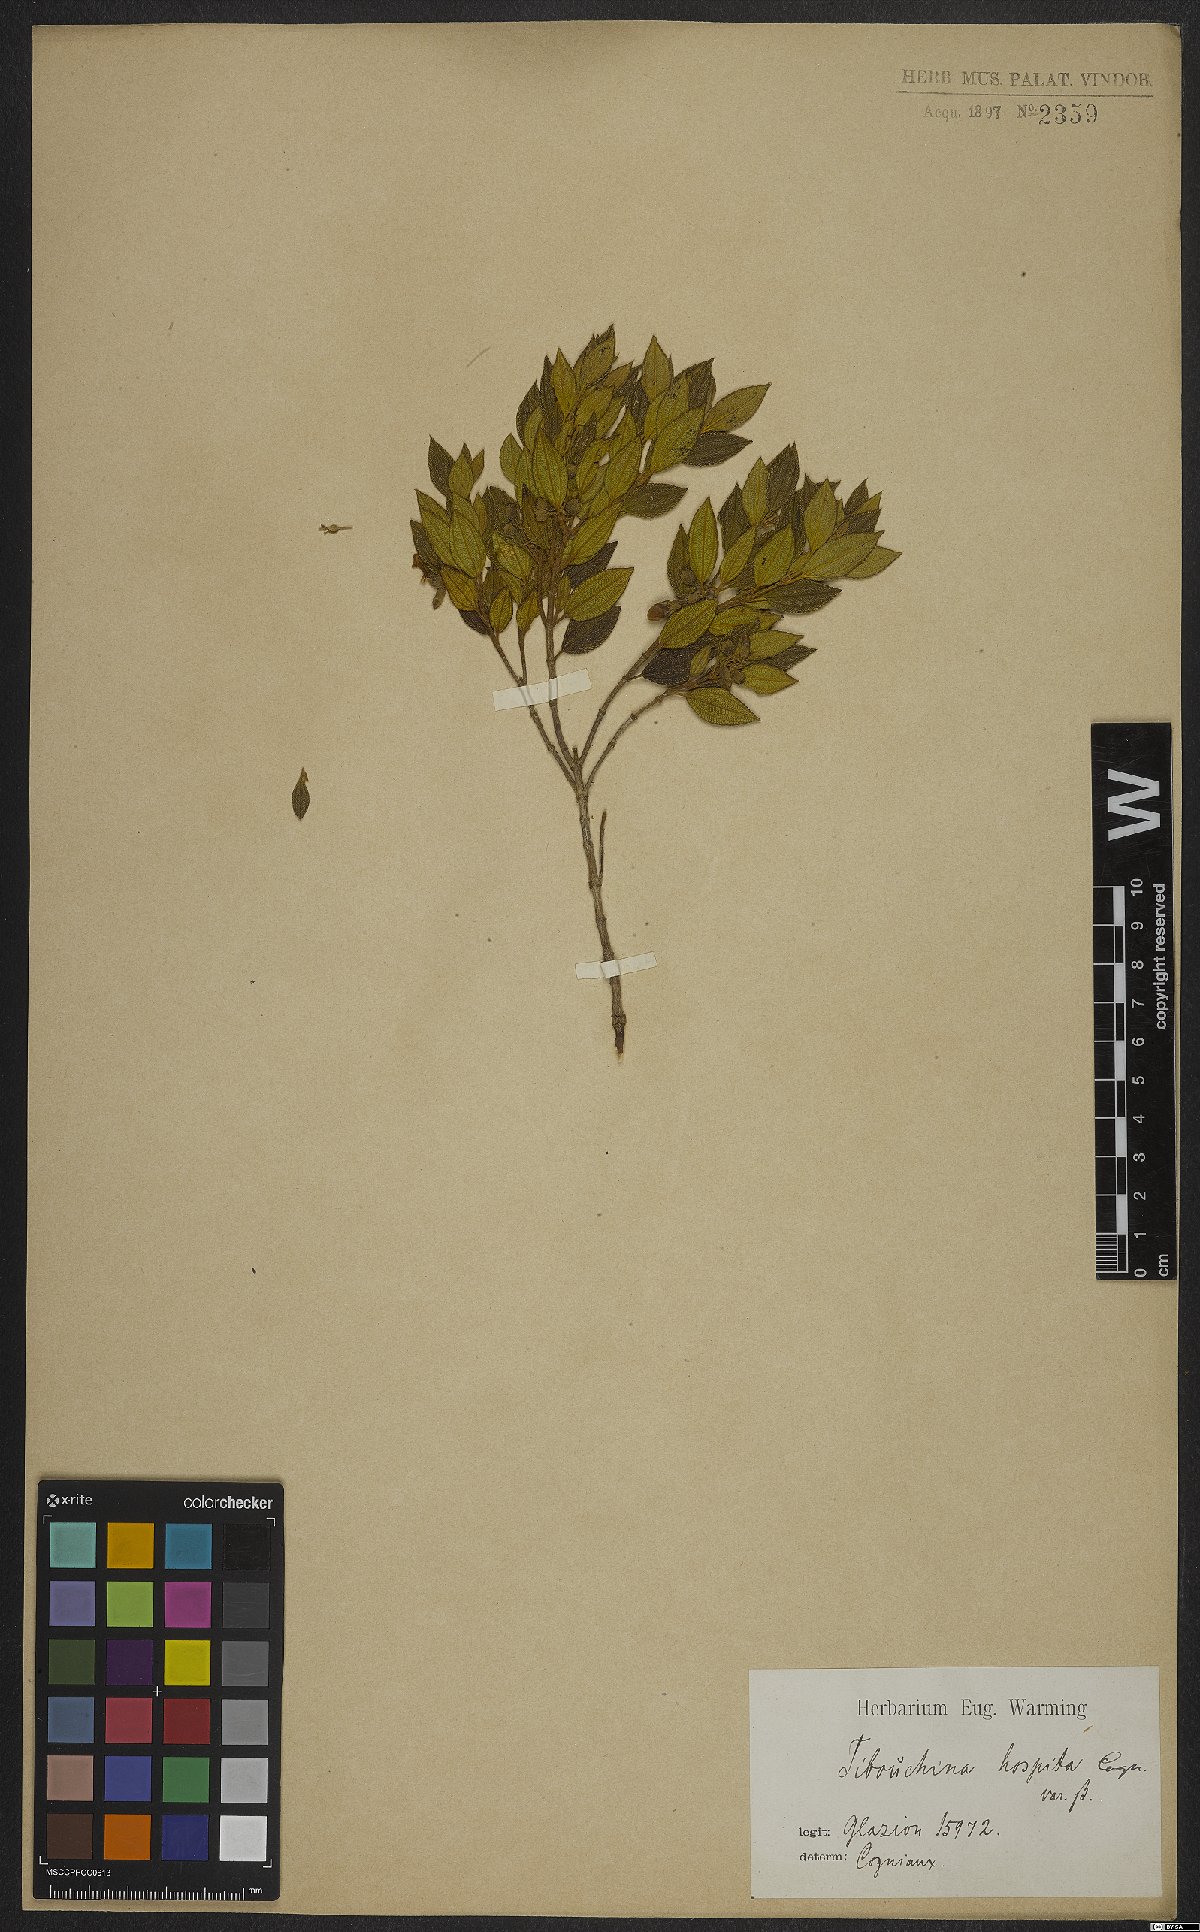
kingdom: Plantae
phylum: Tracheophyta
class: Magnoliopsida
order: Myrtales
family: Melastomataceae
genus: Pleroma
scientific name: Pleroma hospitum
